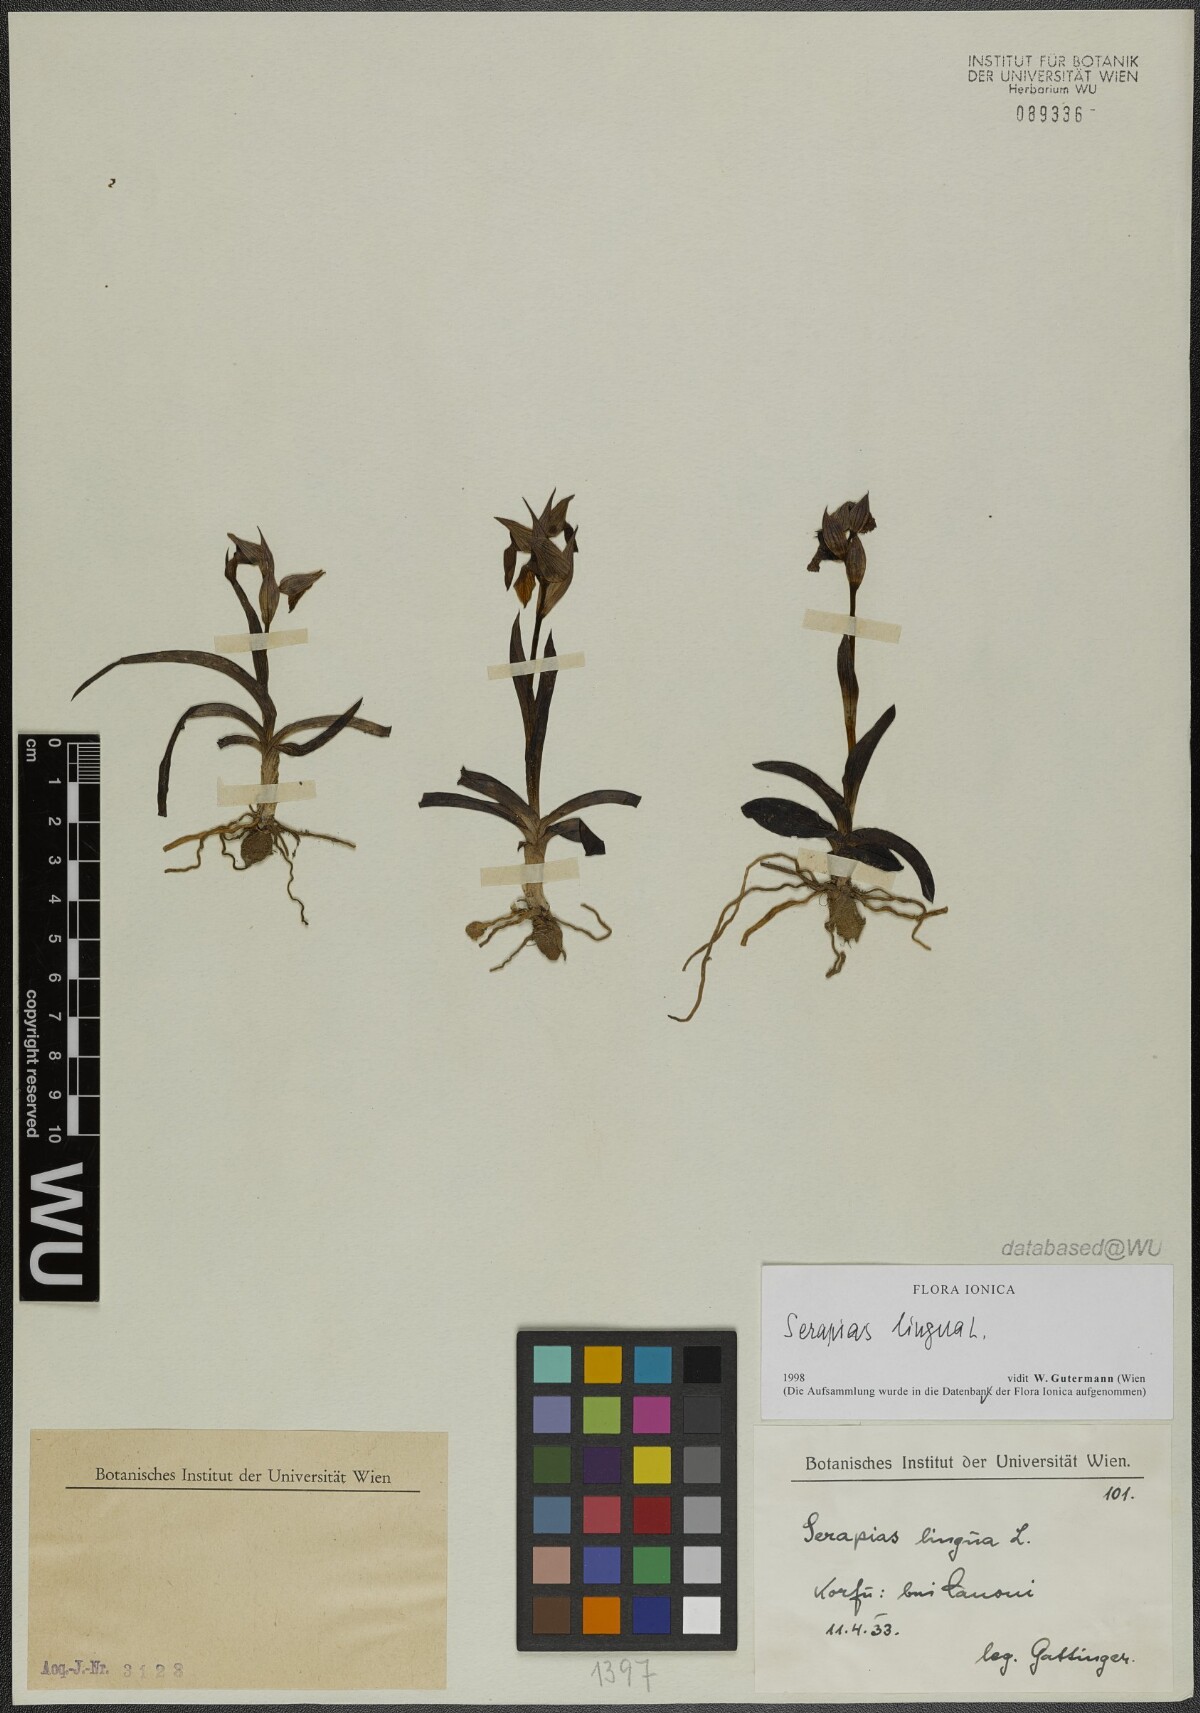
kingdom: Plantae
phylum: Tracheophyta
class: Liliopsida
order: Asparagales
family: Orchidaceae
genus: Serapias
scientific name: Serapias lingua
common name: Tongue-orchid
